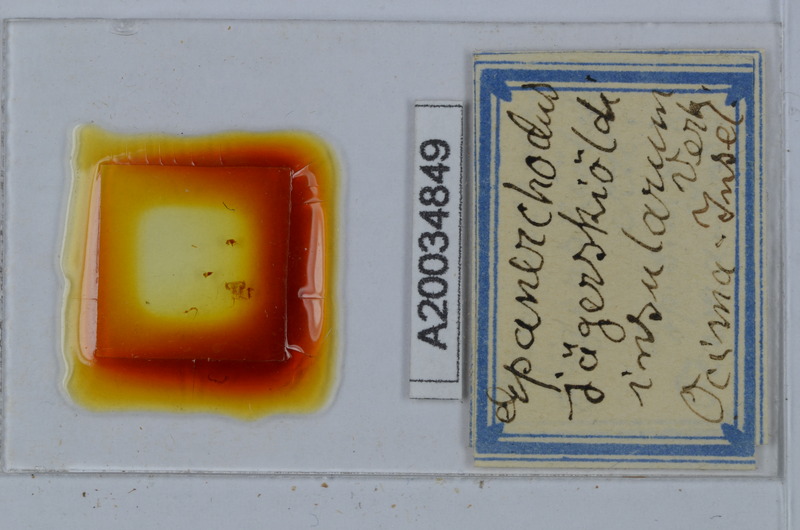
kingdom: Animalia
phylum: Arthropoda
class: Diplopoda
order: Polydesmida
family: Polydesmidae
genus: Epanerchodus
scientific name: Epanerchodus jaegerskioeldi
